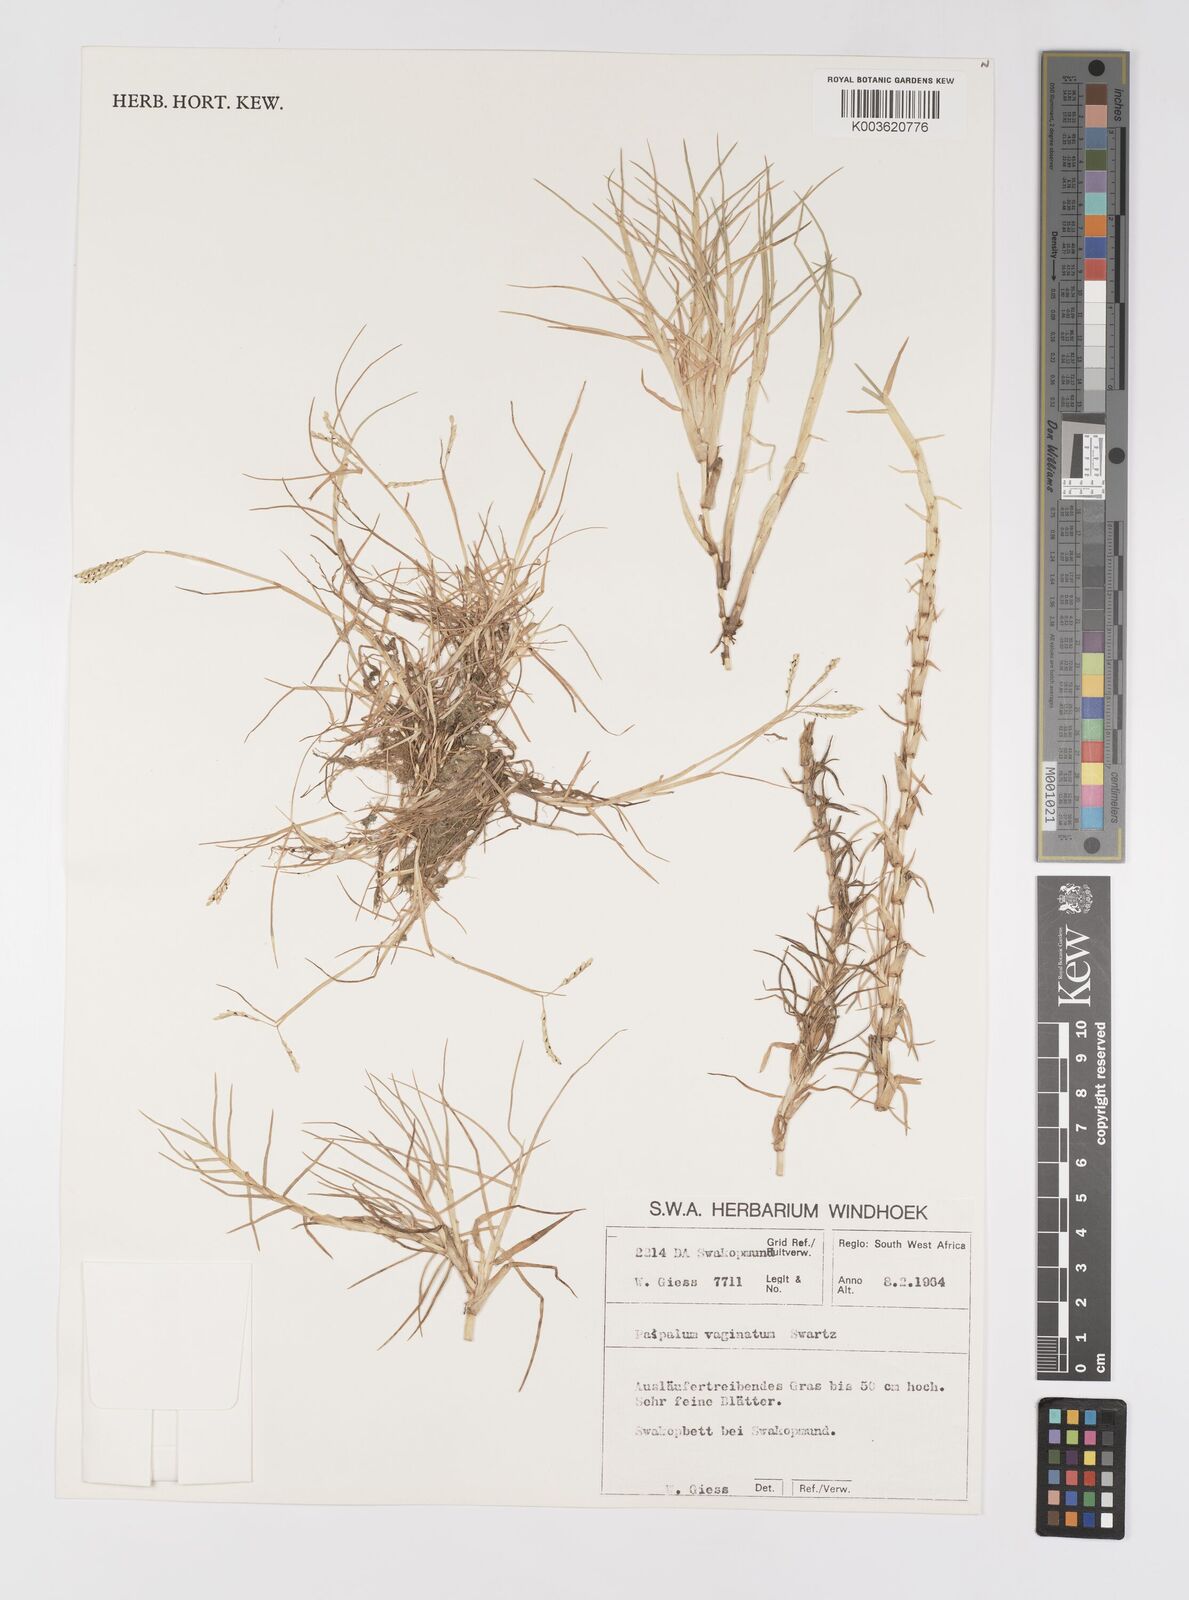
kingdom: Plantae
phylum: Tracheophyta
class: Liliopsida
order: Poales
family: Poaceae
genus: Paspalum
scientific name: Paspalum vaginatum
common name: Seashore paspalum
